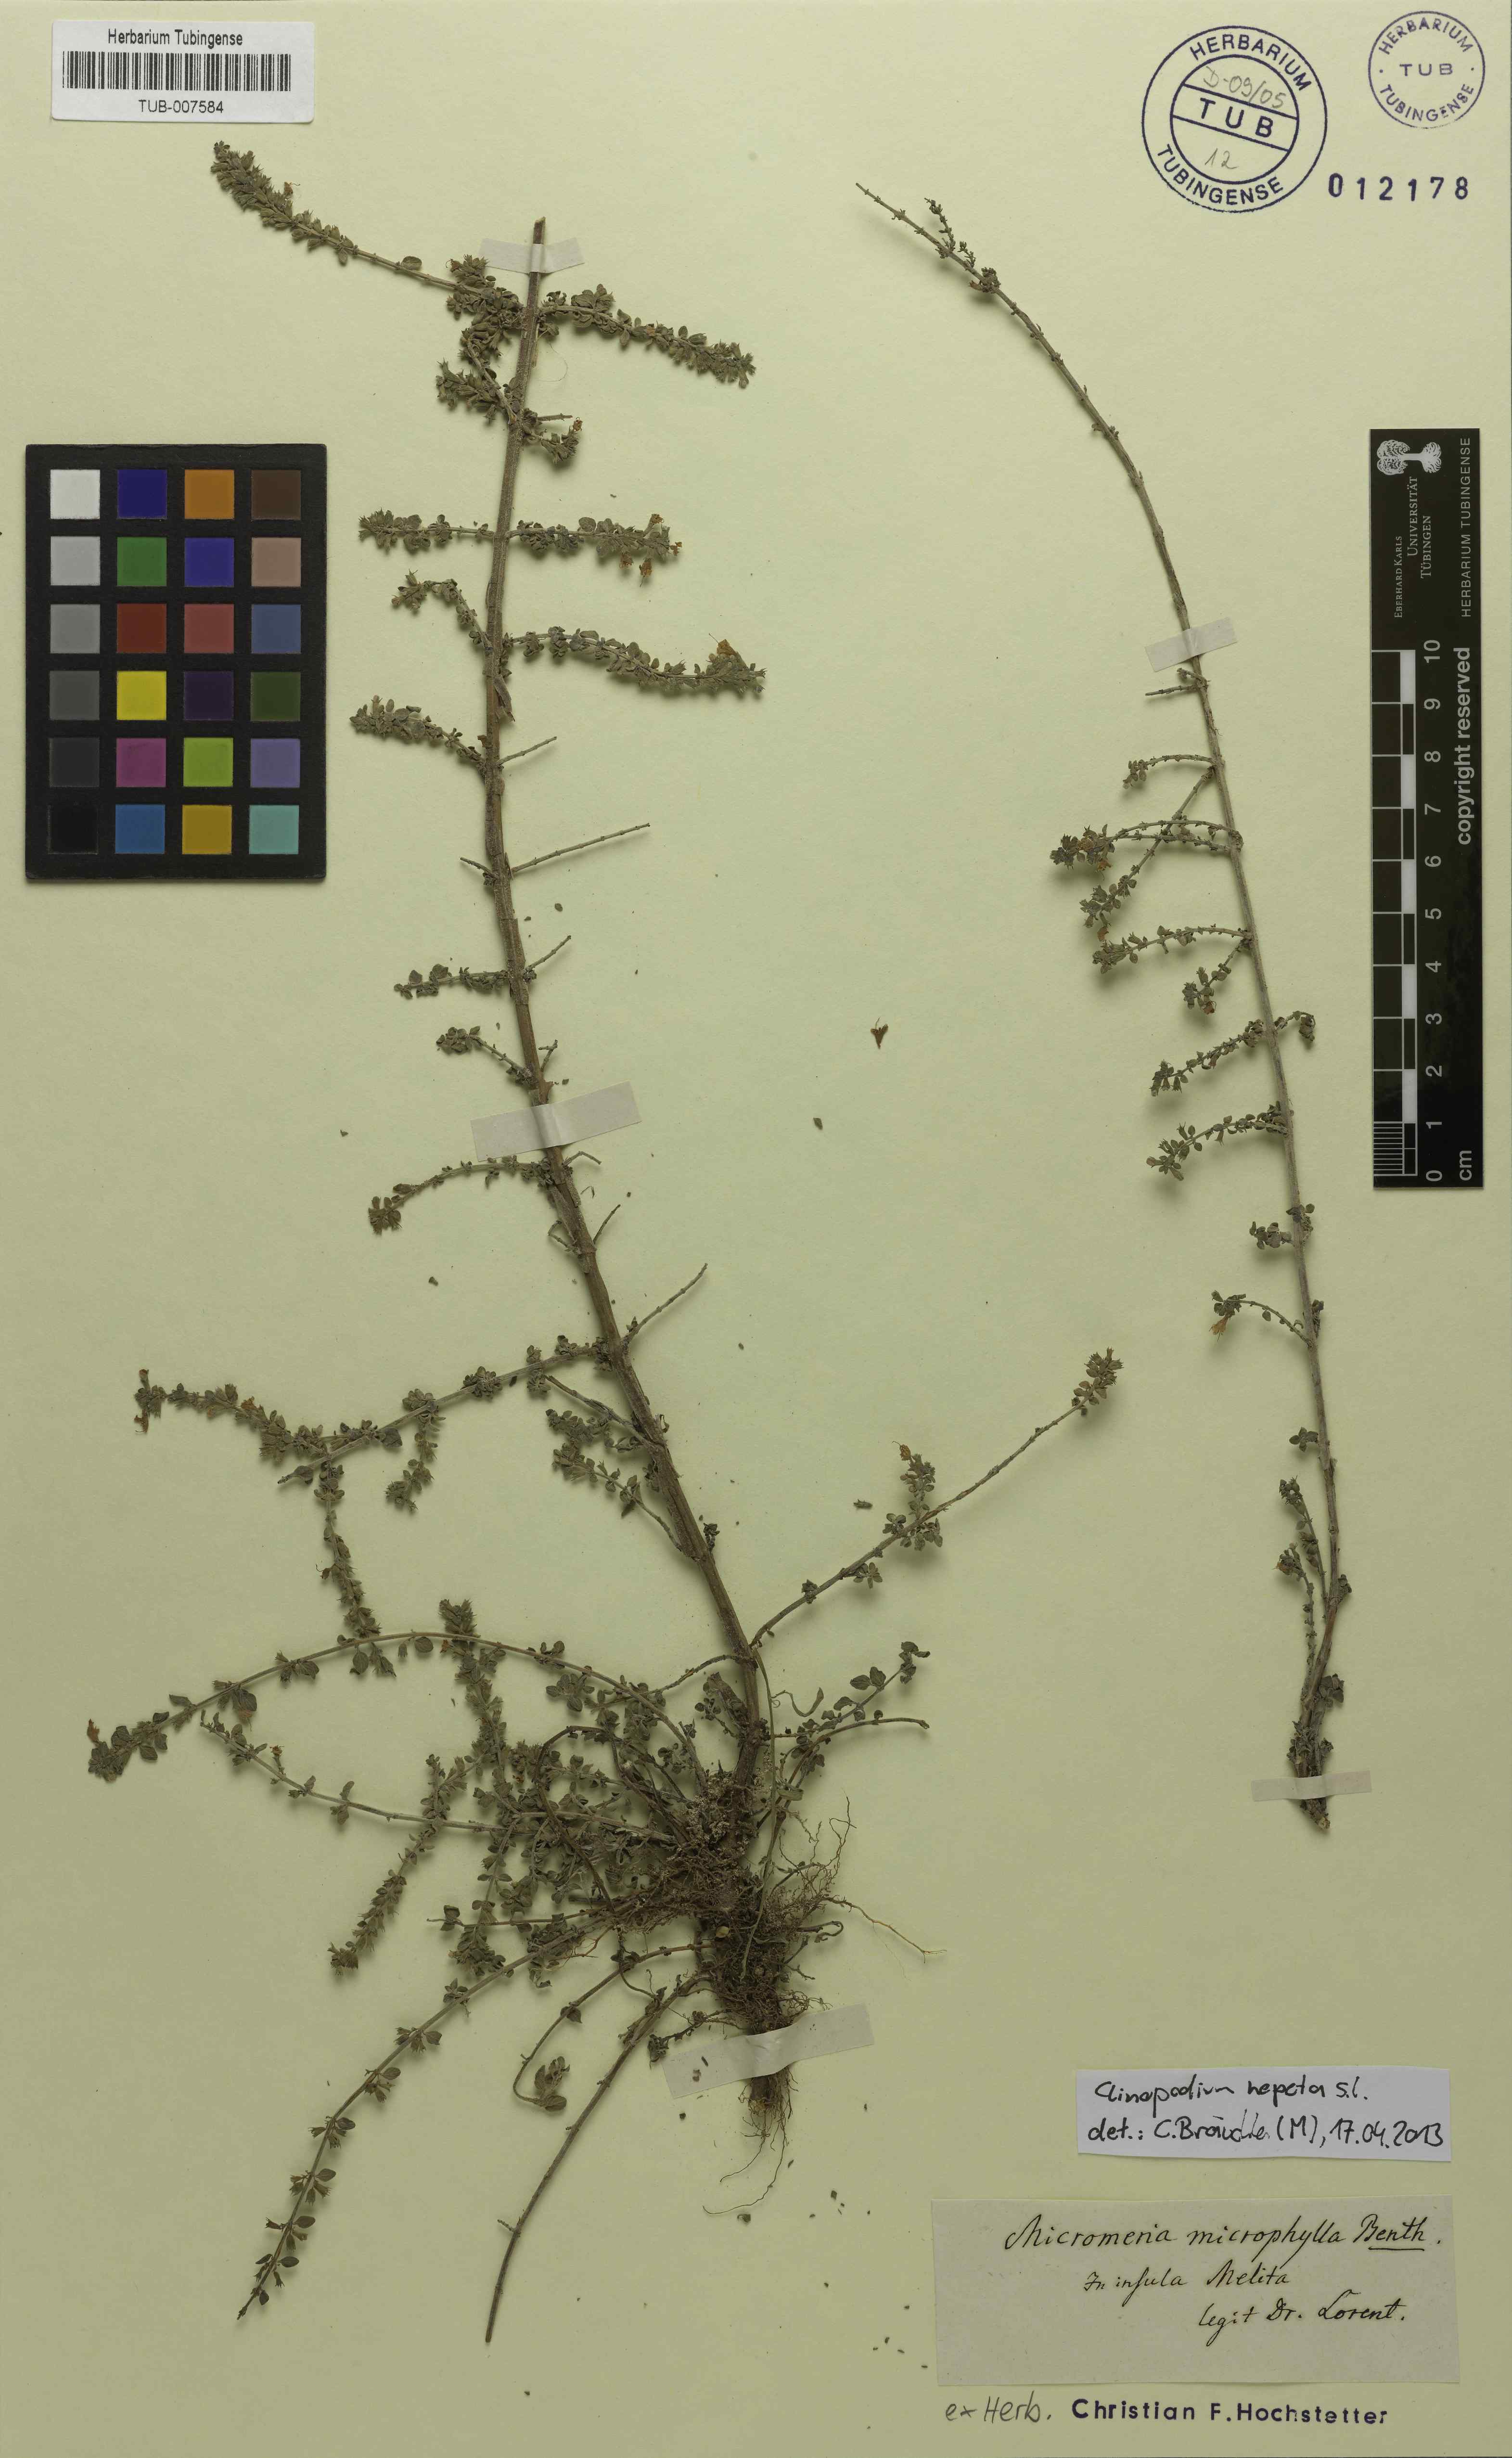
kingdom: Plantae
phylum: Tracheophyta
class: Magnoliopsida
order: Lamiales
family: Lamiaceae
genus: Clinopodium
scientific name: Clinopodium nepeta
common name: Lesser calamint
